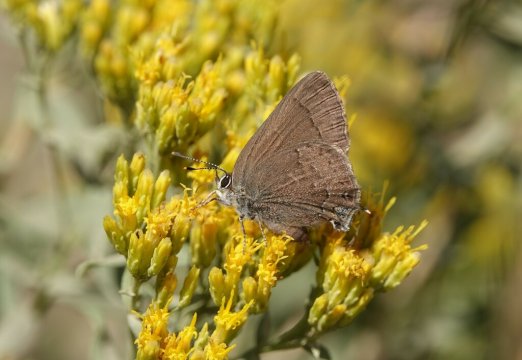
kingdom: Animalia
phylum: Arthropoda
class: Insecta
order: Lepidoptera
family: Lycaenidae
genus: Strymon
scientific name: Strymon saepium
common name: Hedgerow Hairstreak
